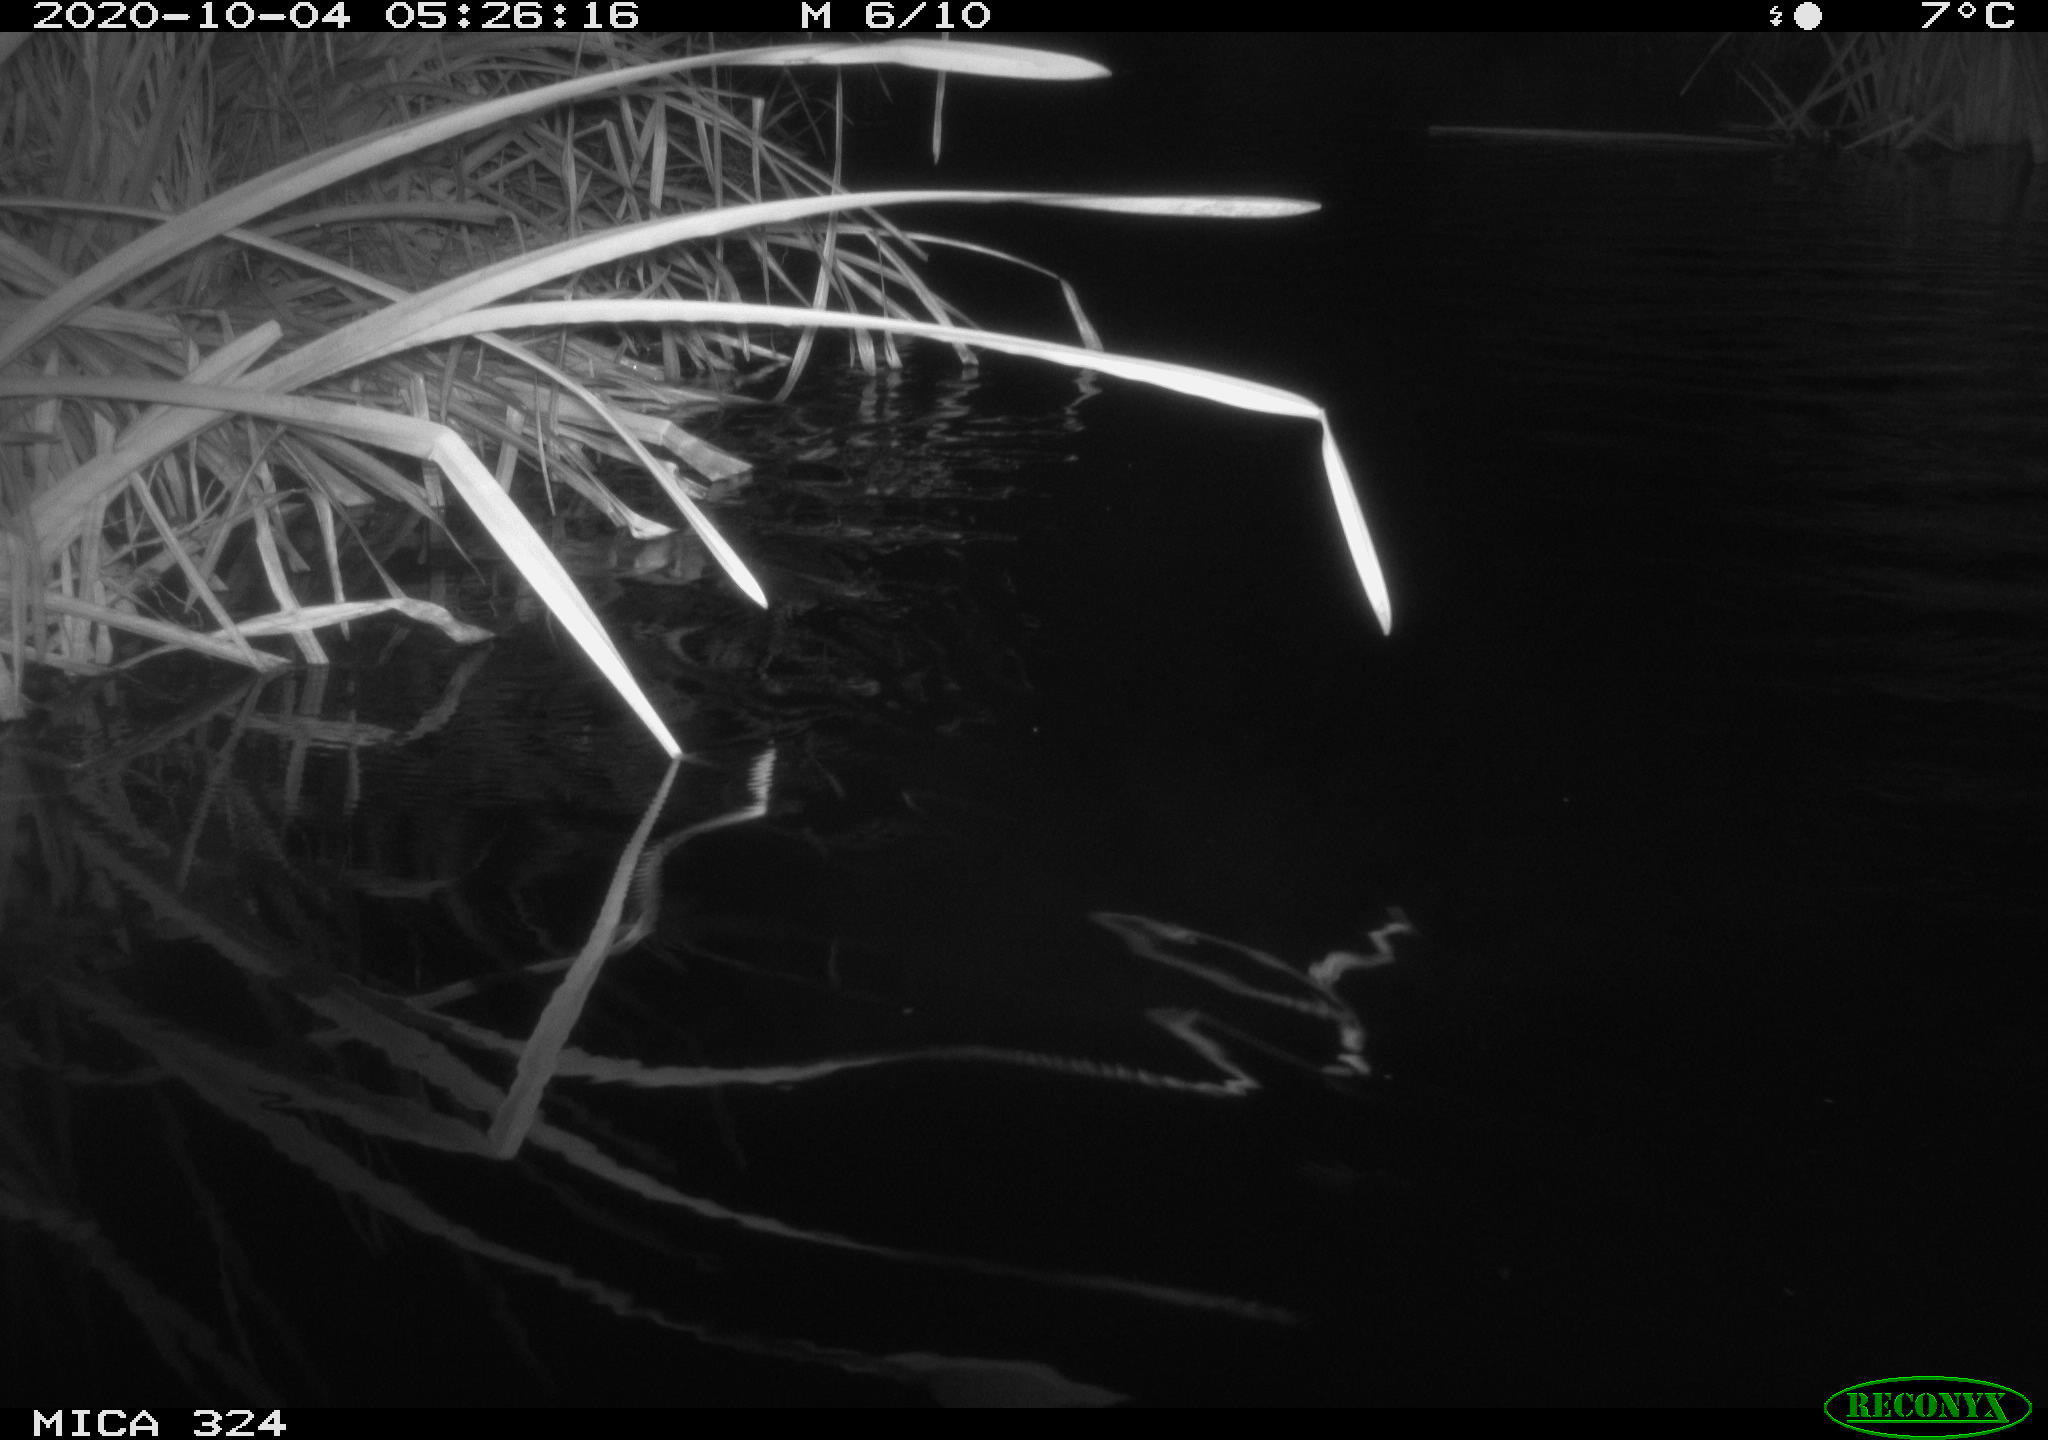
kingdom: Animalia
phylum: Chordata
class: Mammalia
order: Rodentia
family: Myocastoridae
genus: Myocastor
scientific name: Myocastor coypus
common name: Coypu
